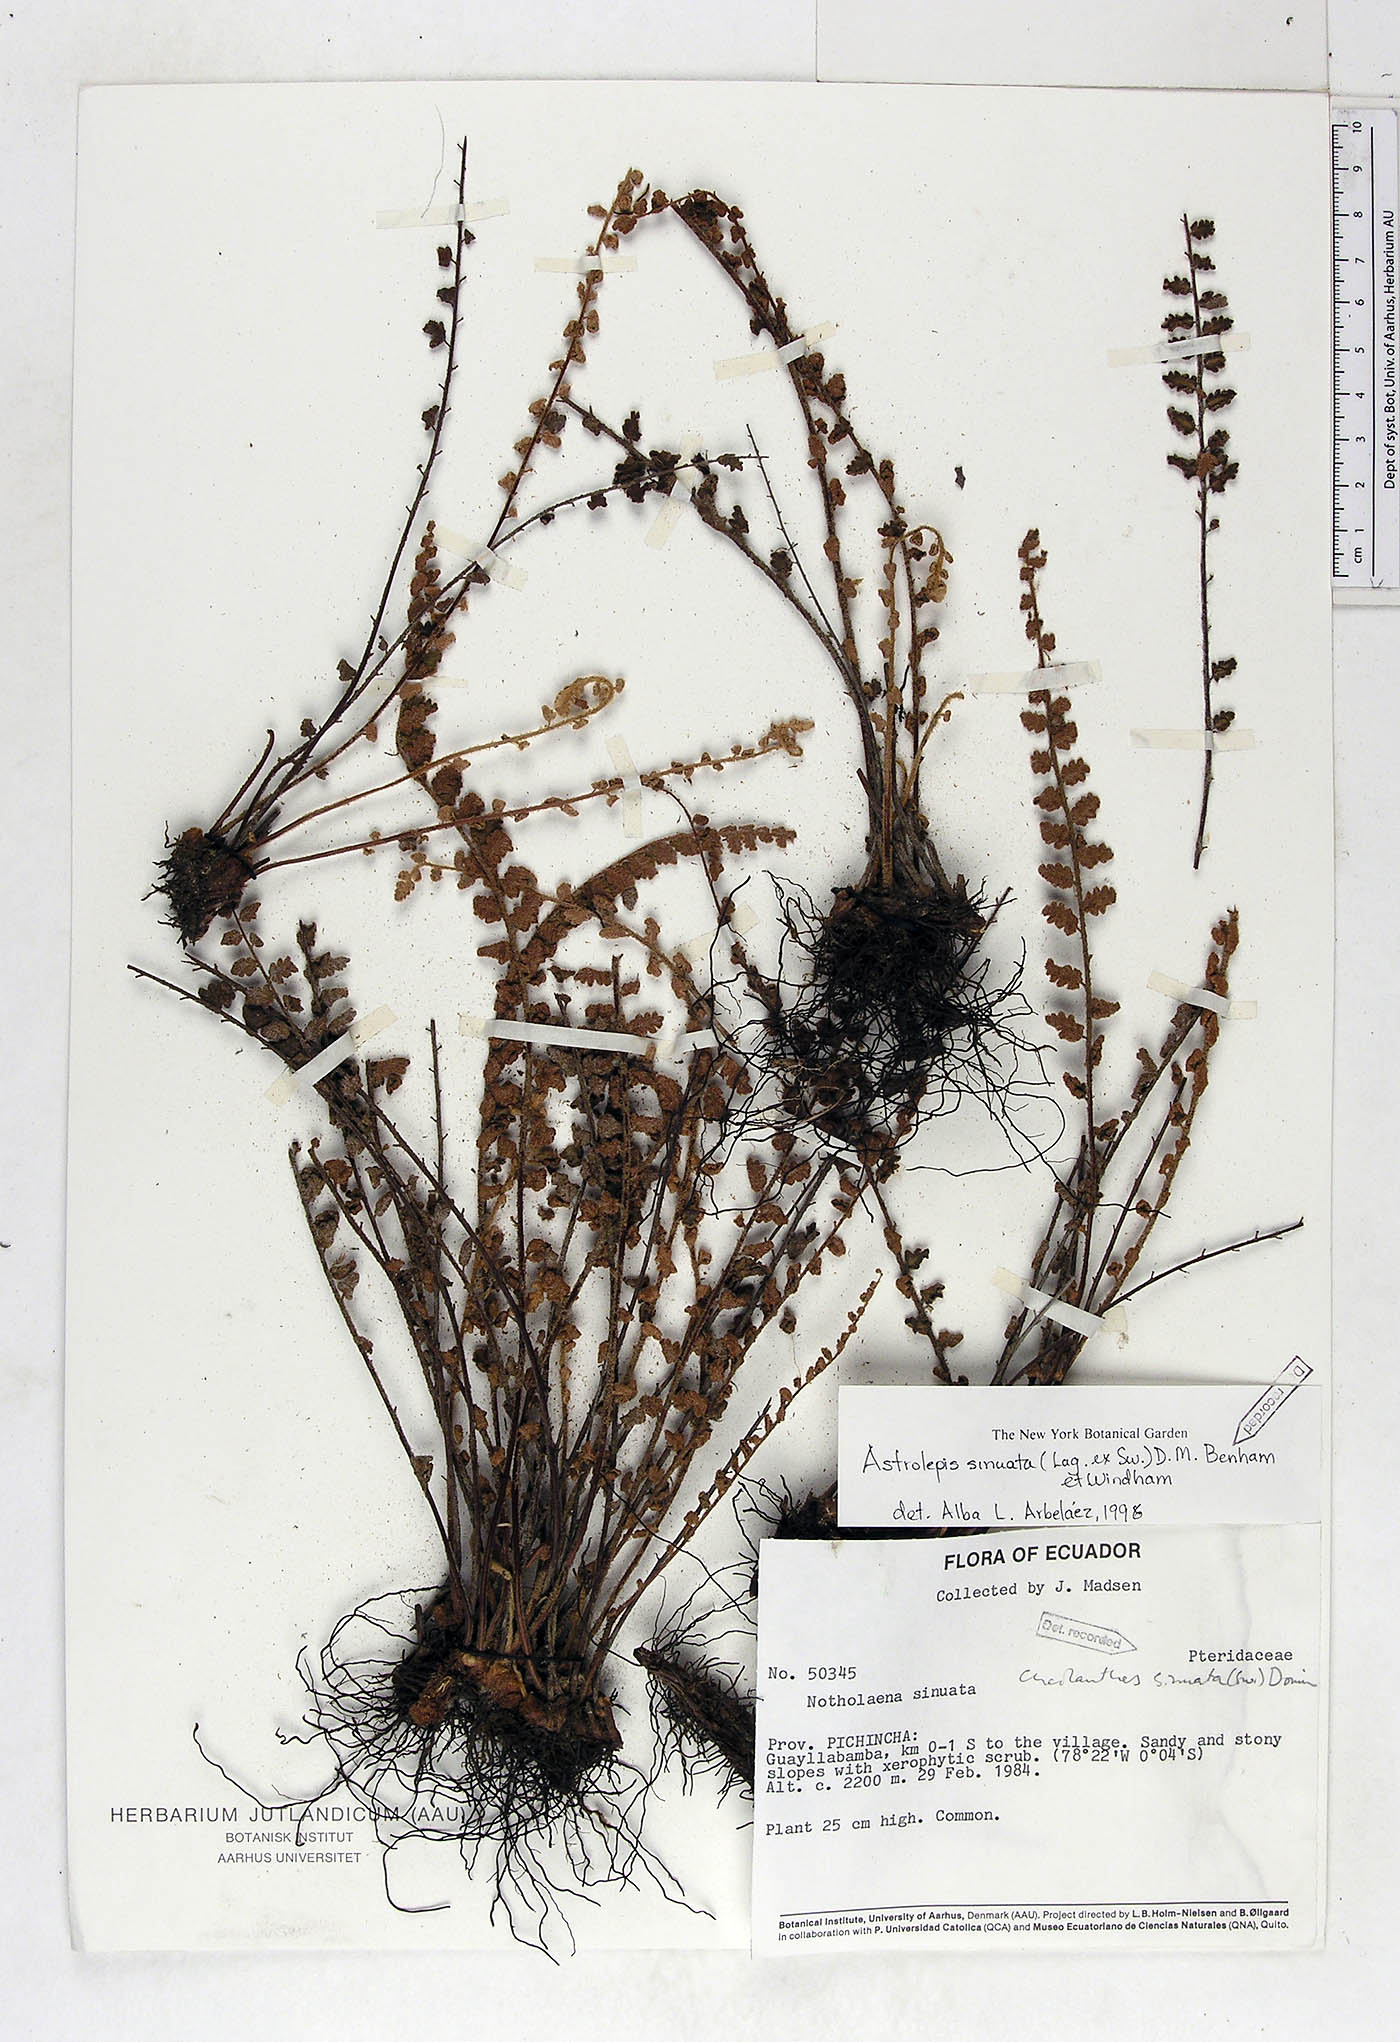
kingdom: Plantae
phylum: Tracheophyta
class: Polypodiopsida
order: Polypodiales
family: Pteridaceae
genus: Astrolepis
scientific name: Astrolepis sinuata
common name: Wavy scaly cloakfern
